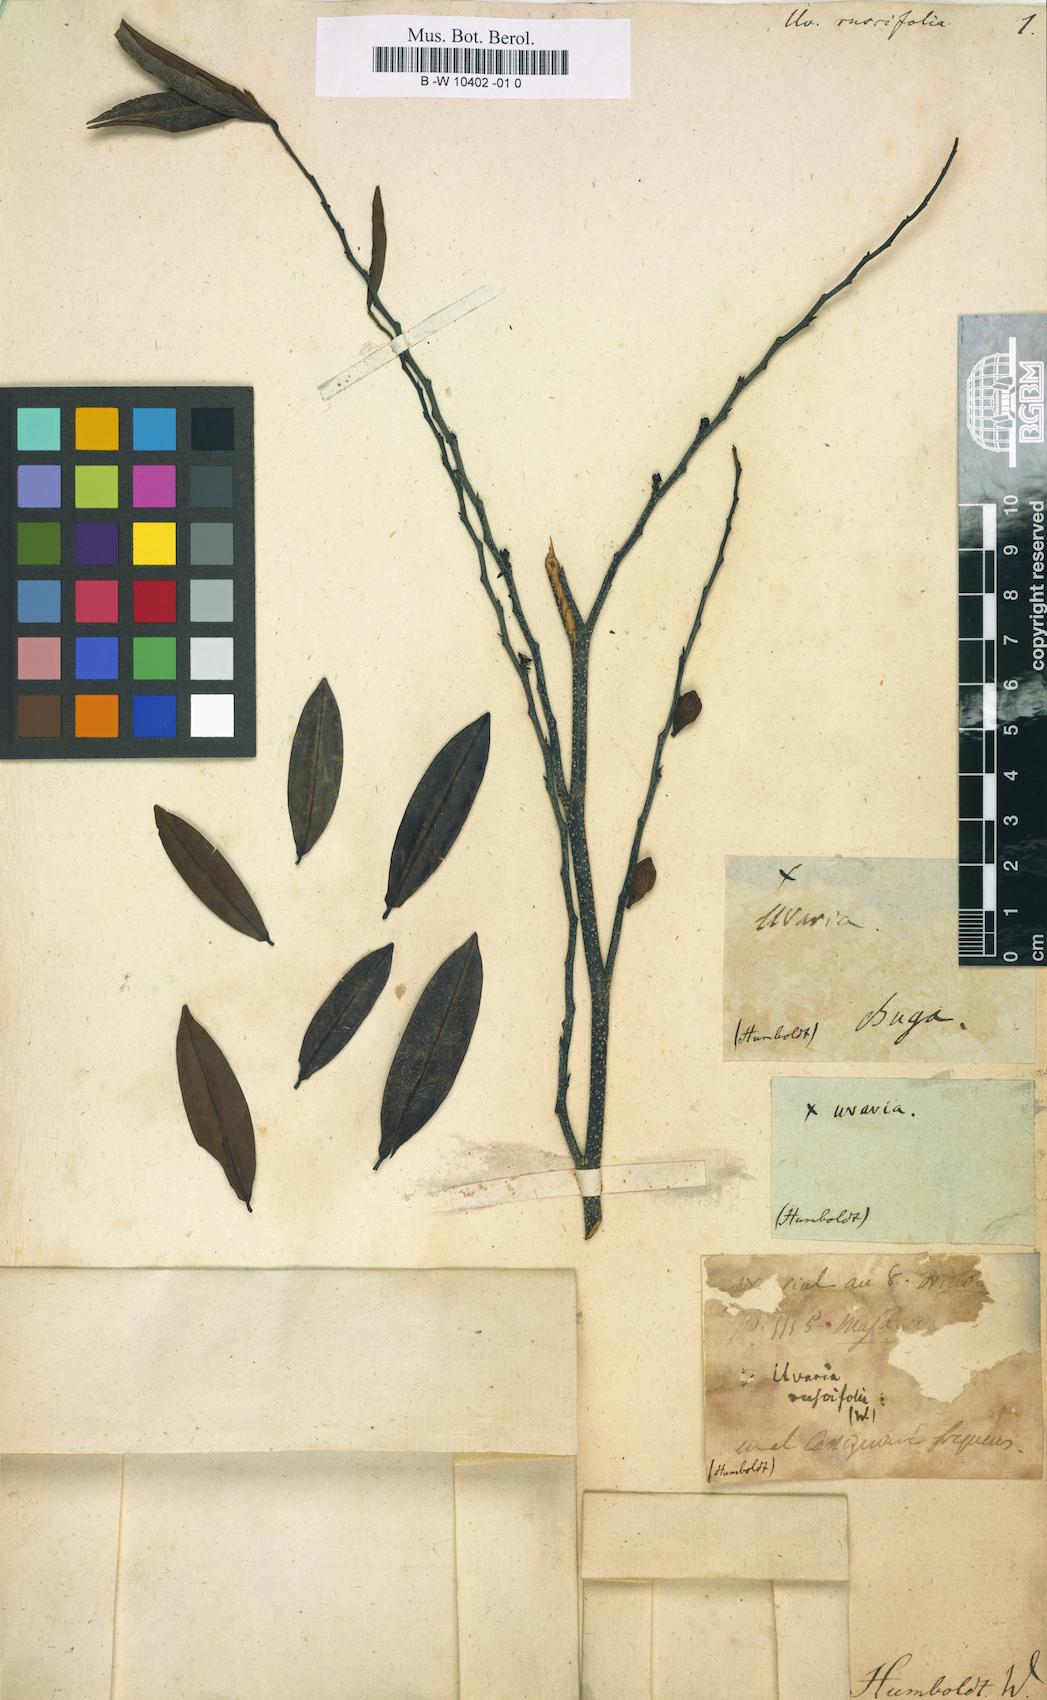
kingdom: Plantae
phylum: Tracheophyta
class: Magnoliopsida
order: Magnoliales
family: Annonaceae
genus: Uvaria
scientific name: Uvaria
